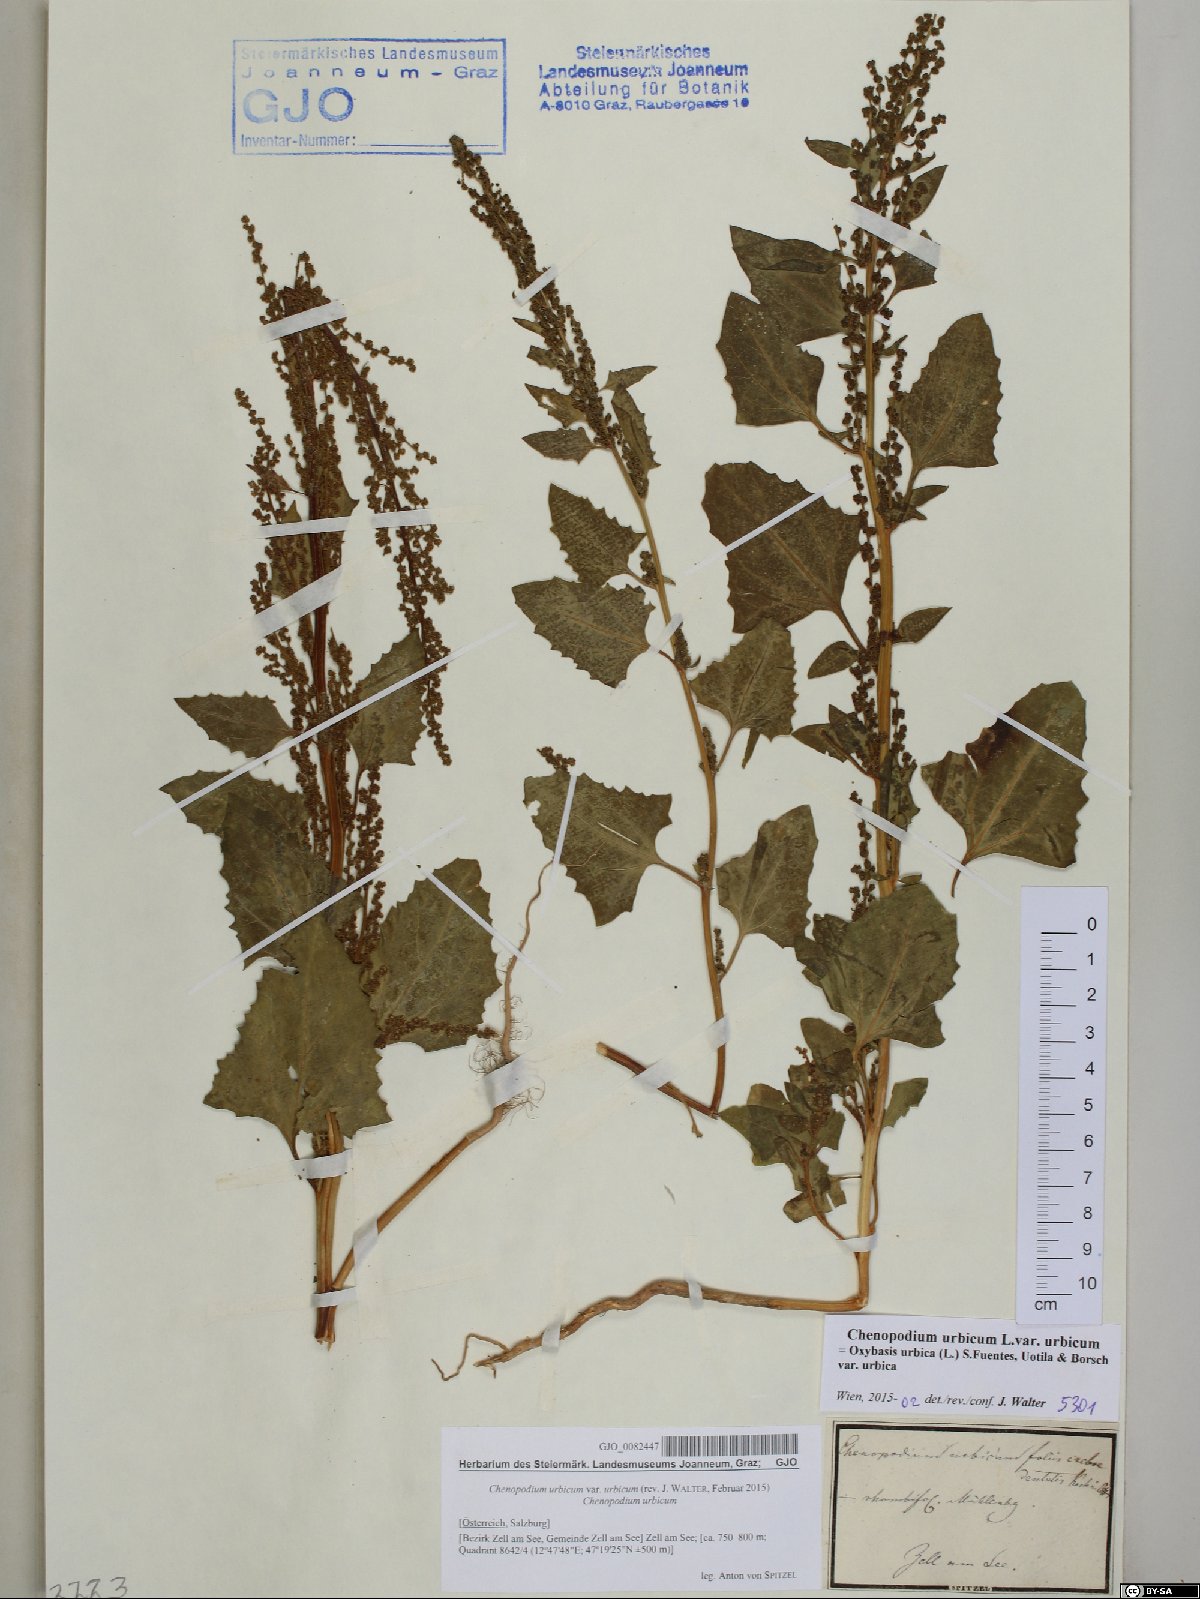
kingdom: Plantae
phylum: Tracheophyta
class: Magnoliopsida
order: Caryophyllales
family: Amaranthaceae
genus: Oxybasis
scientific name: Oxybasis urbica
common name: City goosefoot
